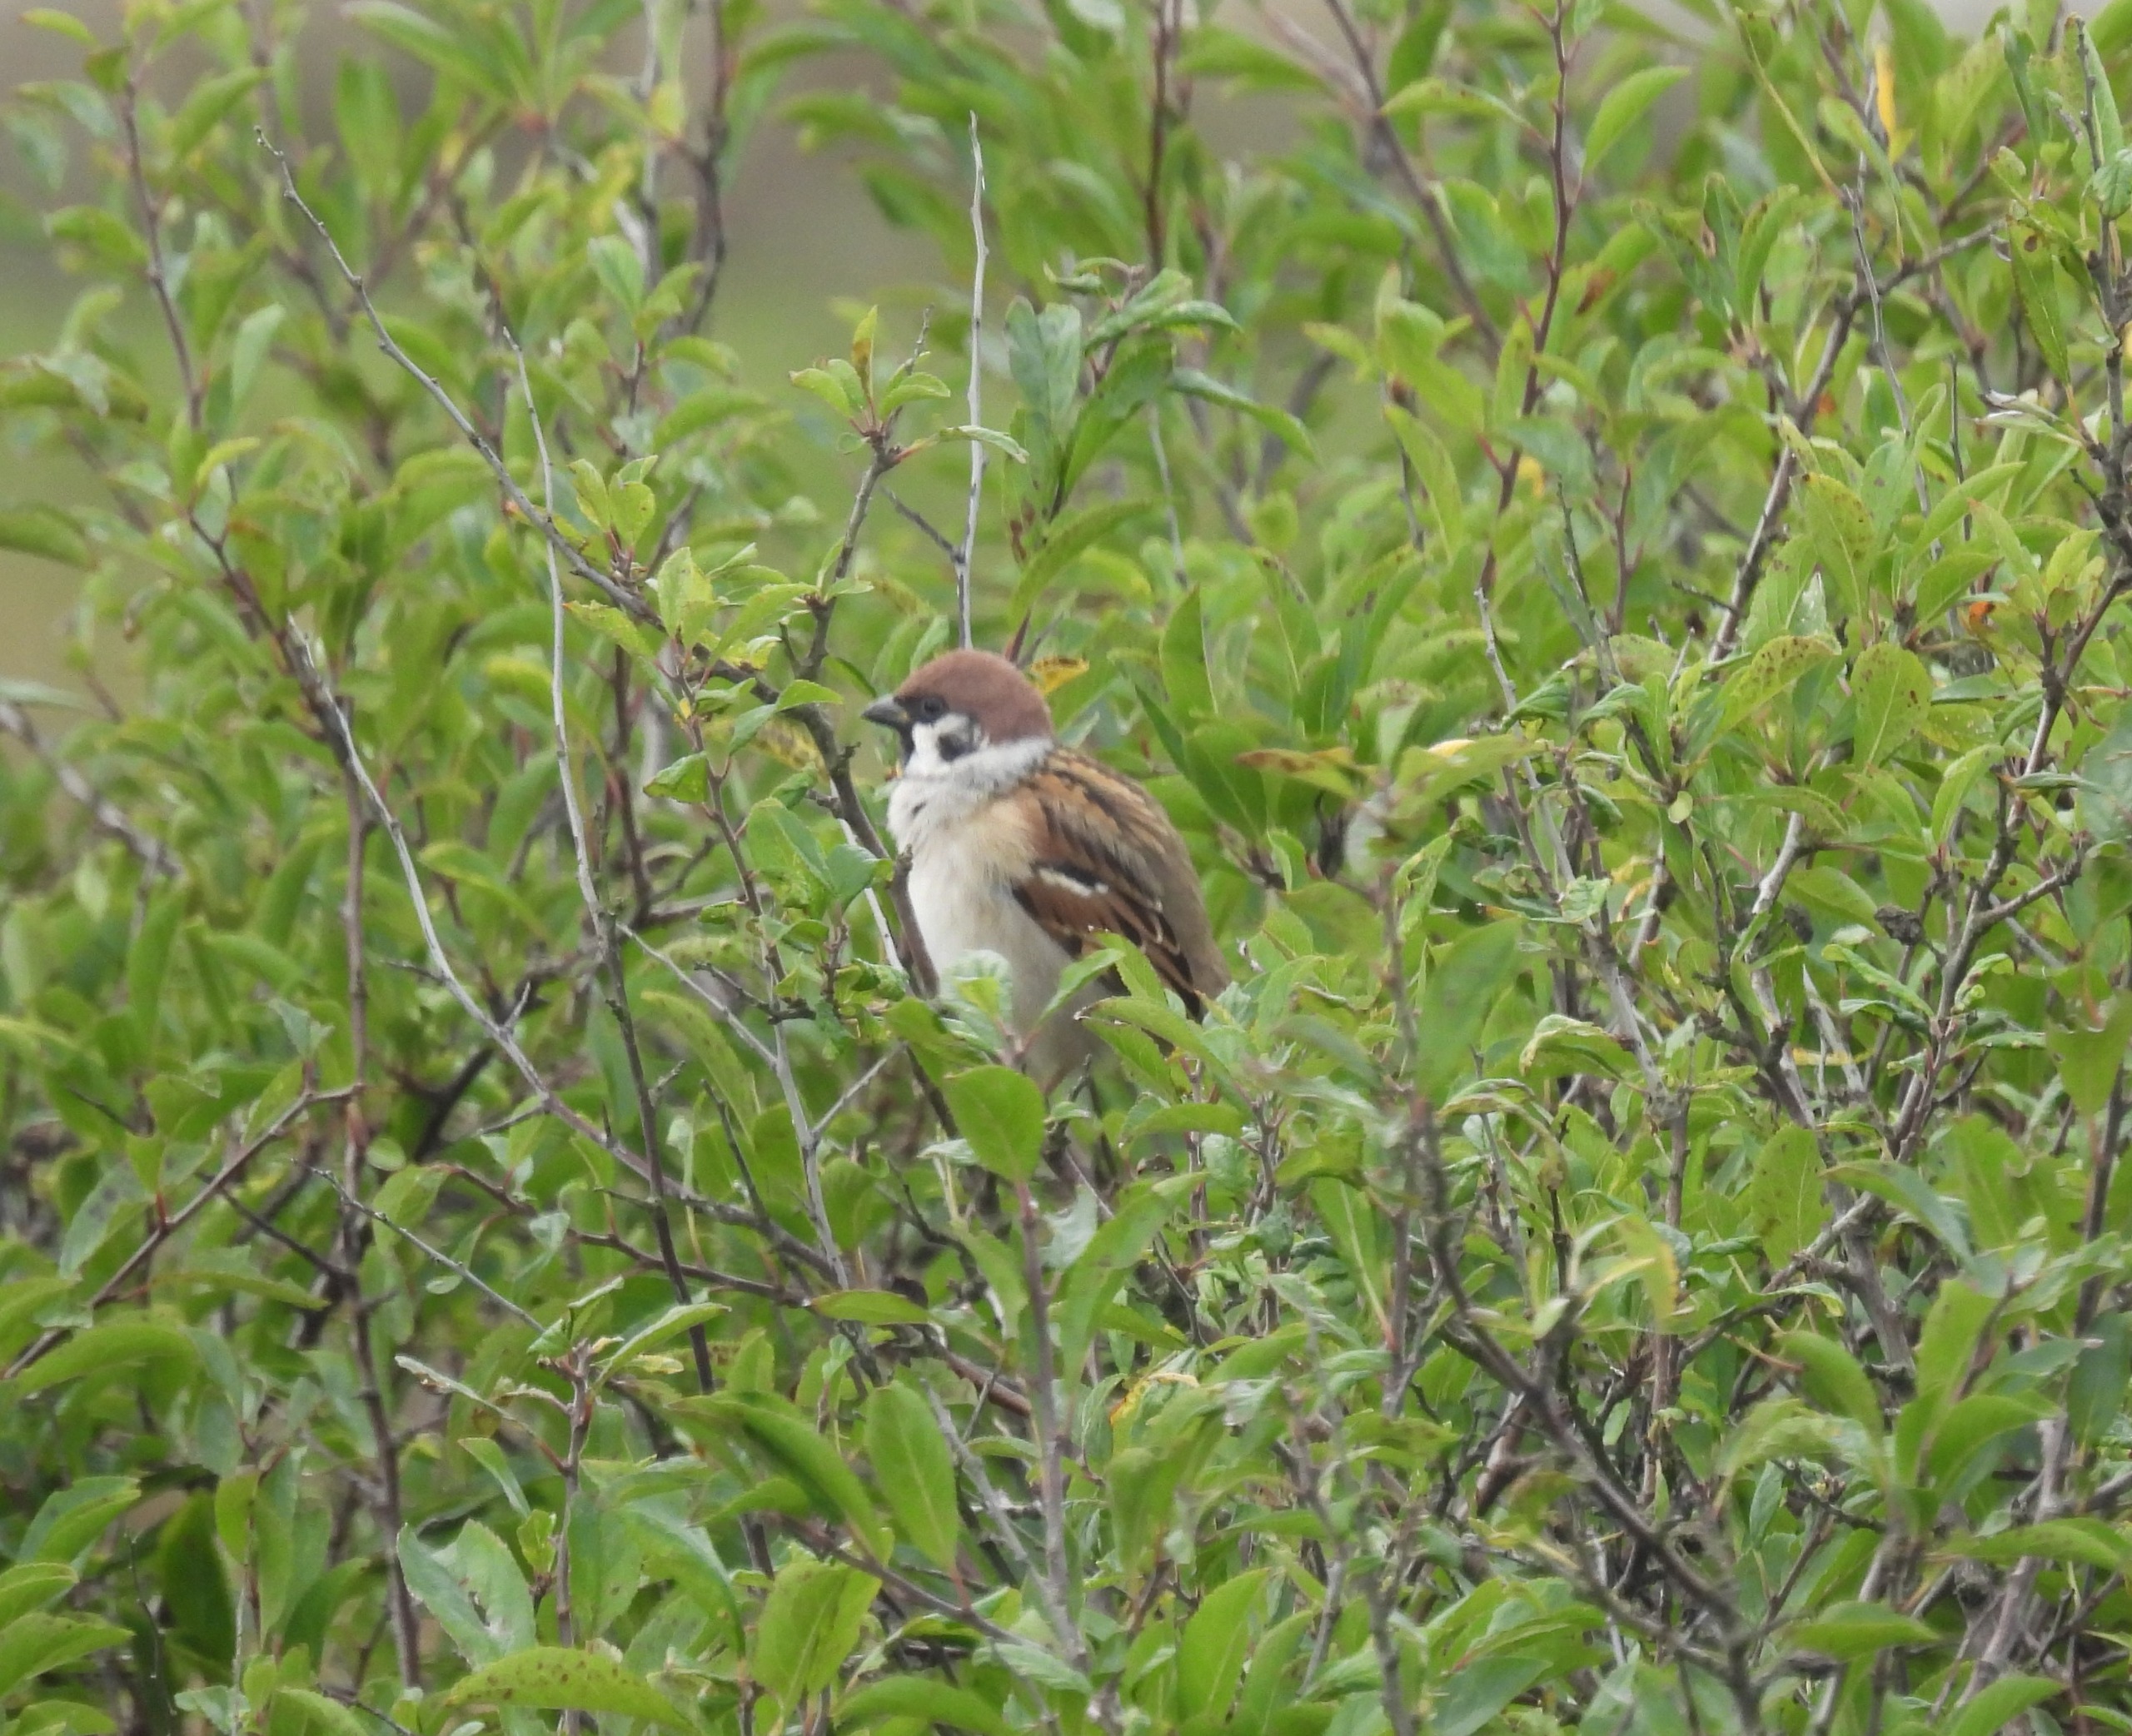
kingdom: Animalia
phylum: Chordata
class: Aves
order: Passeriformes
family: Passeridae
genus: Passer
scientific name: Passer montanus
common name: Skovspurv
